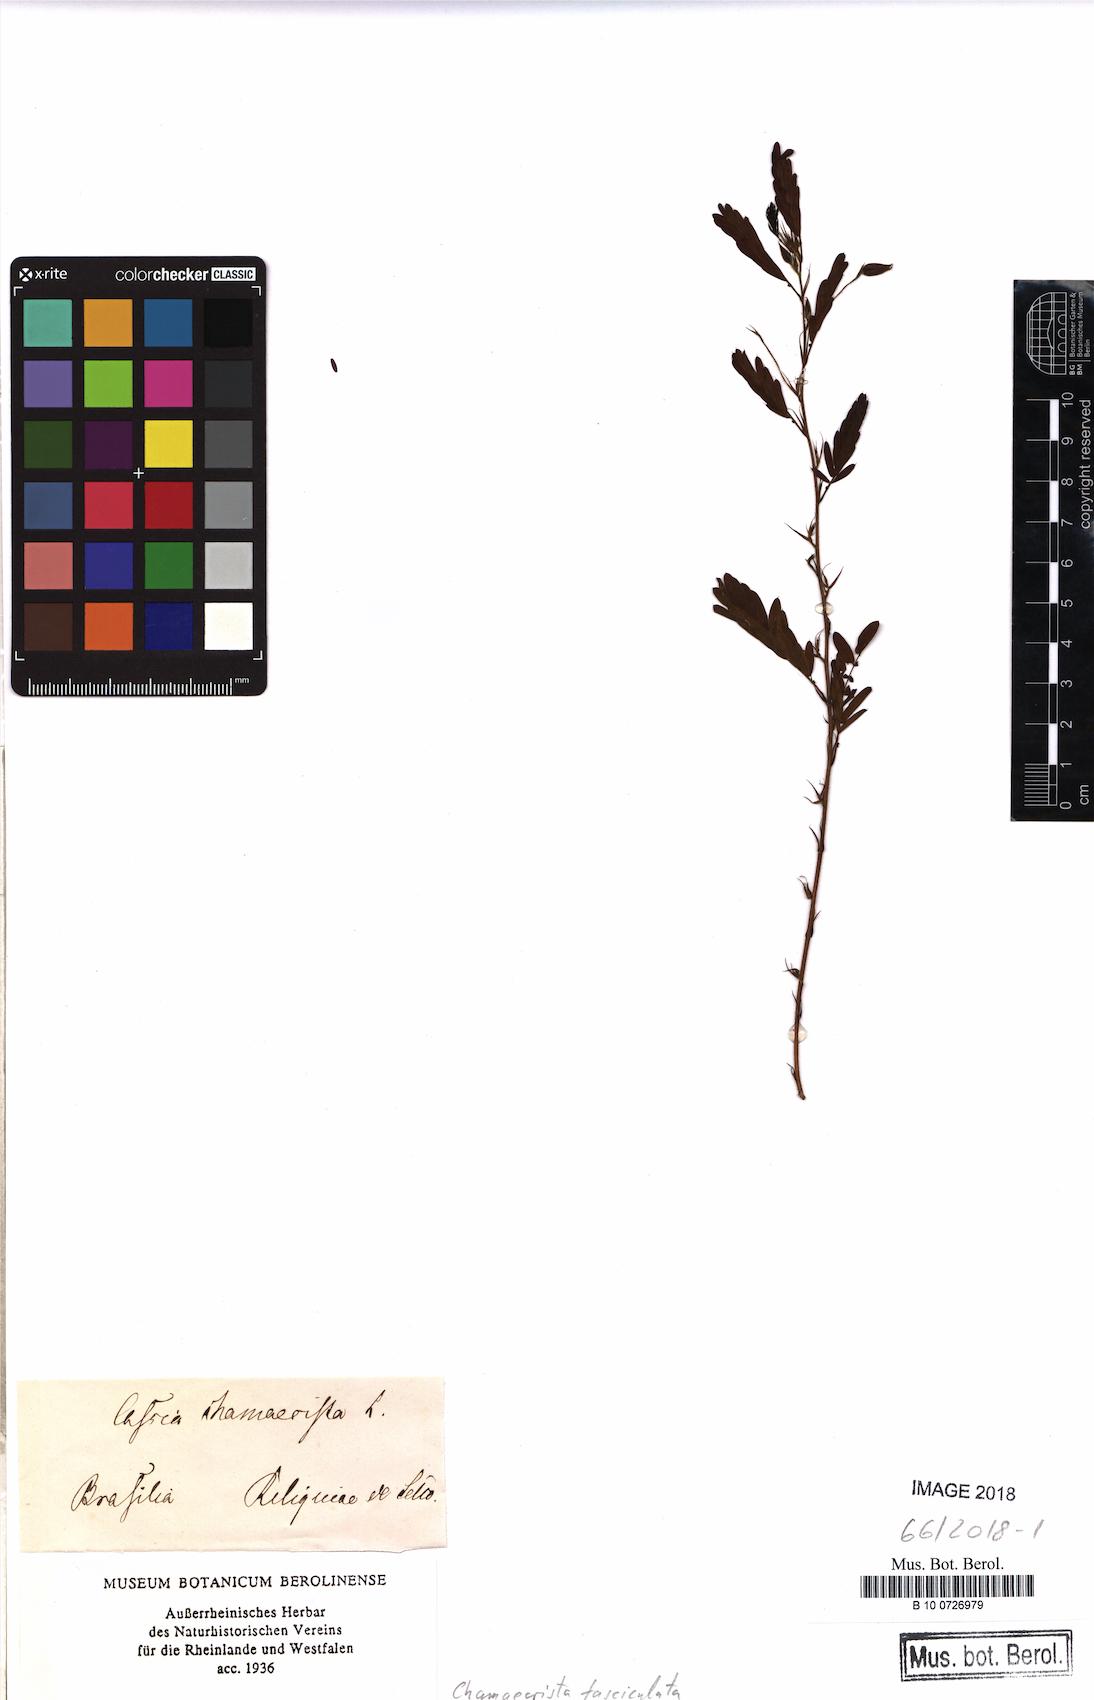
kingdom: Plantae
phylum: Tracheophyta
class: Magnoliopsida
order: Fabales
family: Fabaceae
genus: Chamaecrista
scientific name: Chamaecrista fasciculata
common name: Golden cassia
